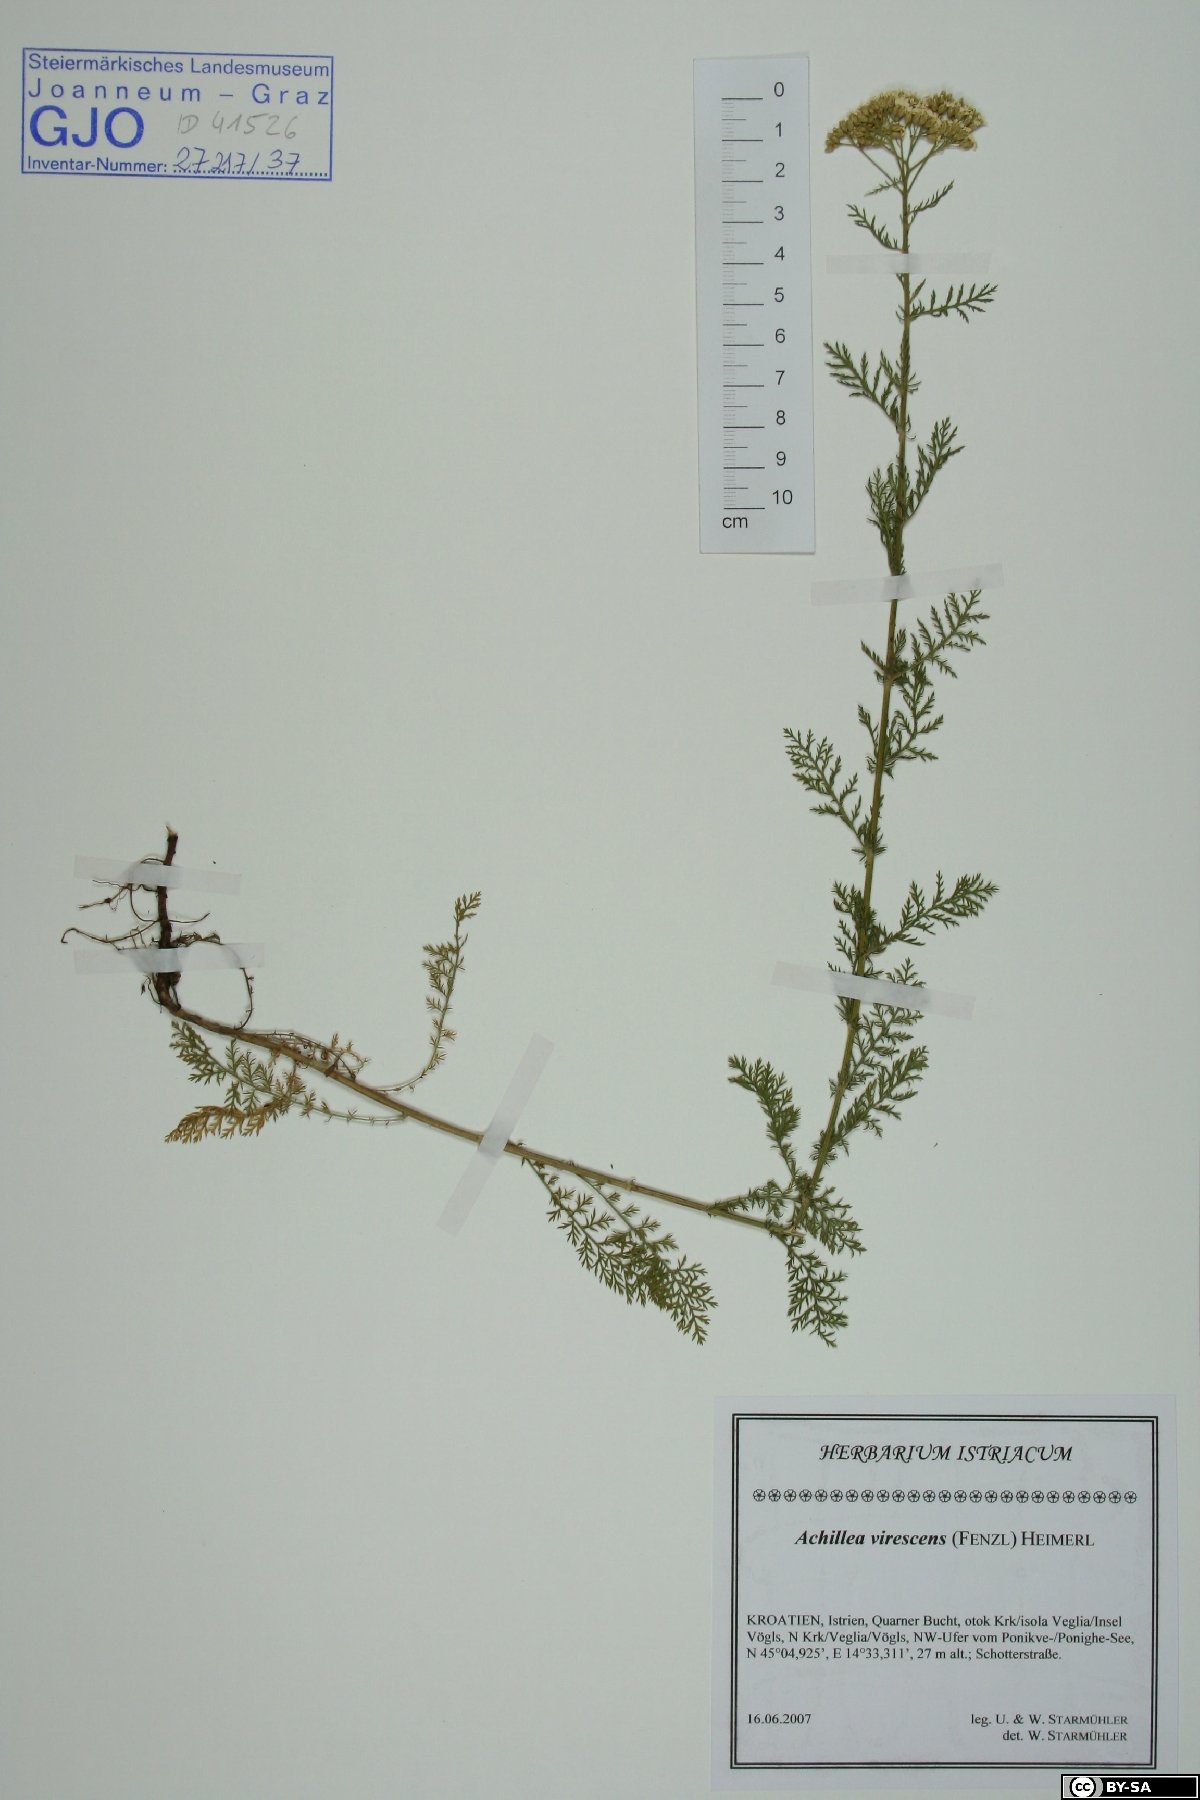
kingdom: Plantae
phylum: Tracheophyta
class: Magnoliopsida
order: Asterales
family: Asteraceae
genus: Achillea
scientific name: Achillea virescens
